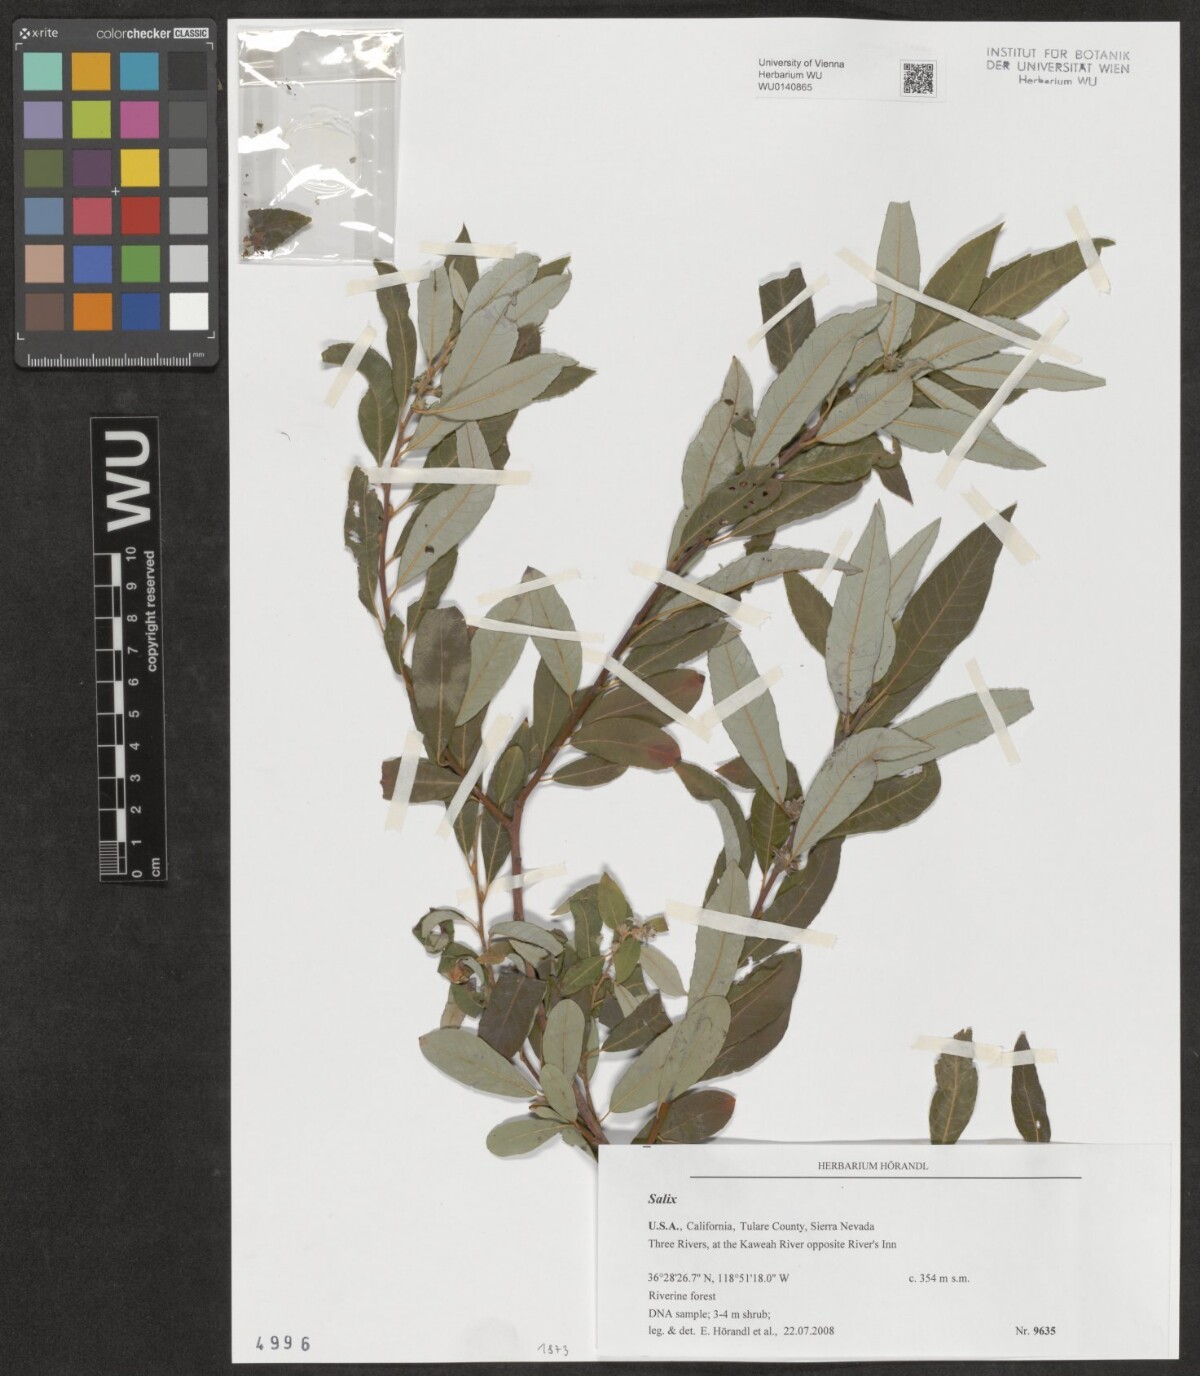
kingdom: Plantae
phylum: Tracheophyta
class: Magnoliopsida
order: Malpighiales
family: Salicaceae
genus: Salix
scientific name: Salix
